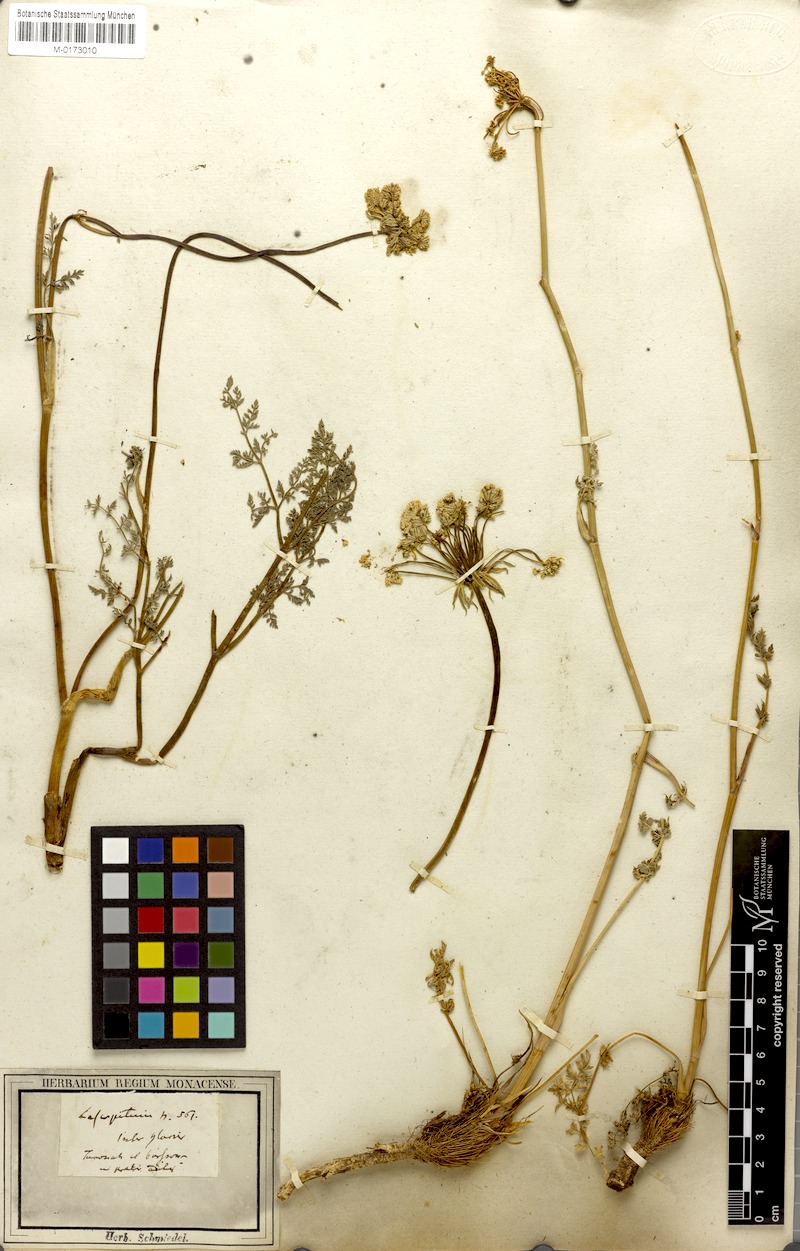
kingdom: Plantae
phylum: Tracheophyta
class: Magnoliopsida
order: Apiales
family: Apiaceae
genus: Laserpitium
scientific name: Laserpitium halleri
